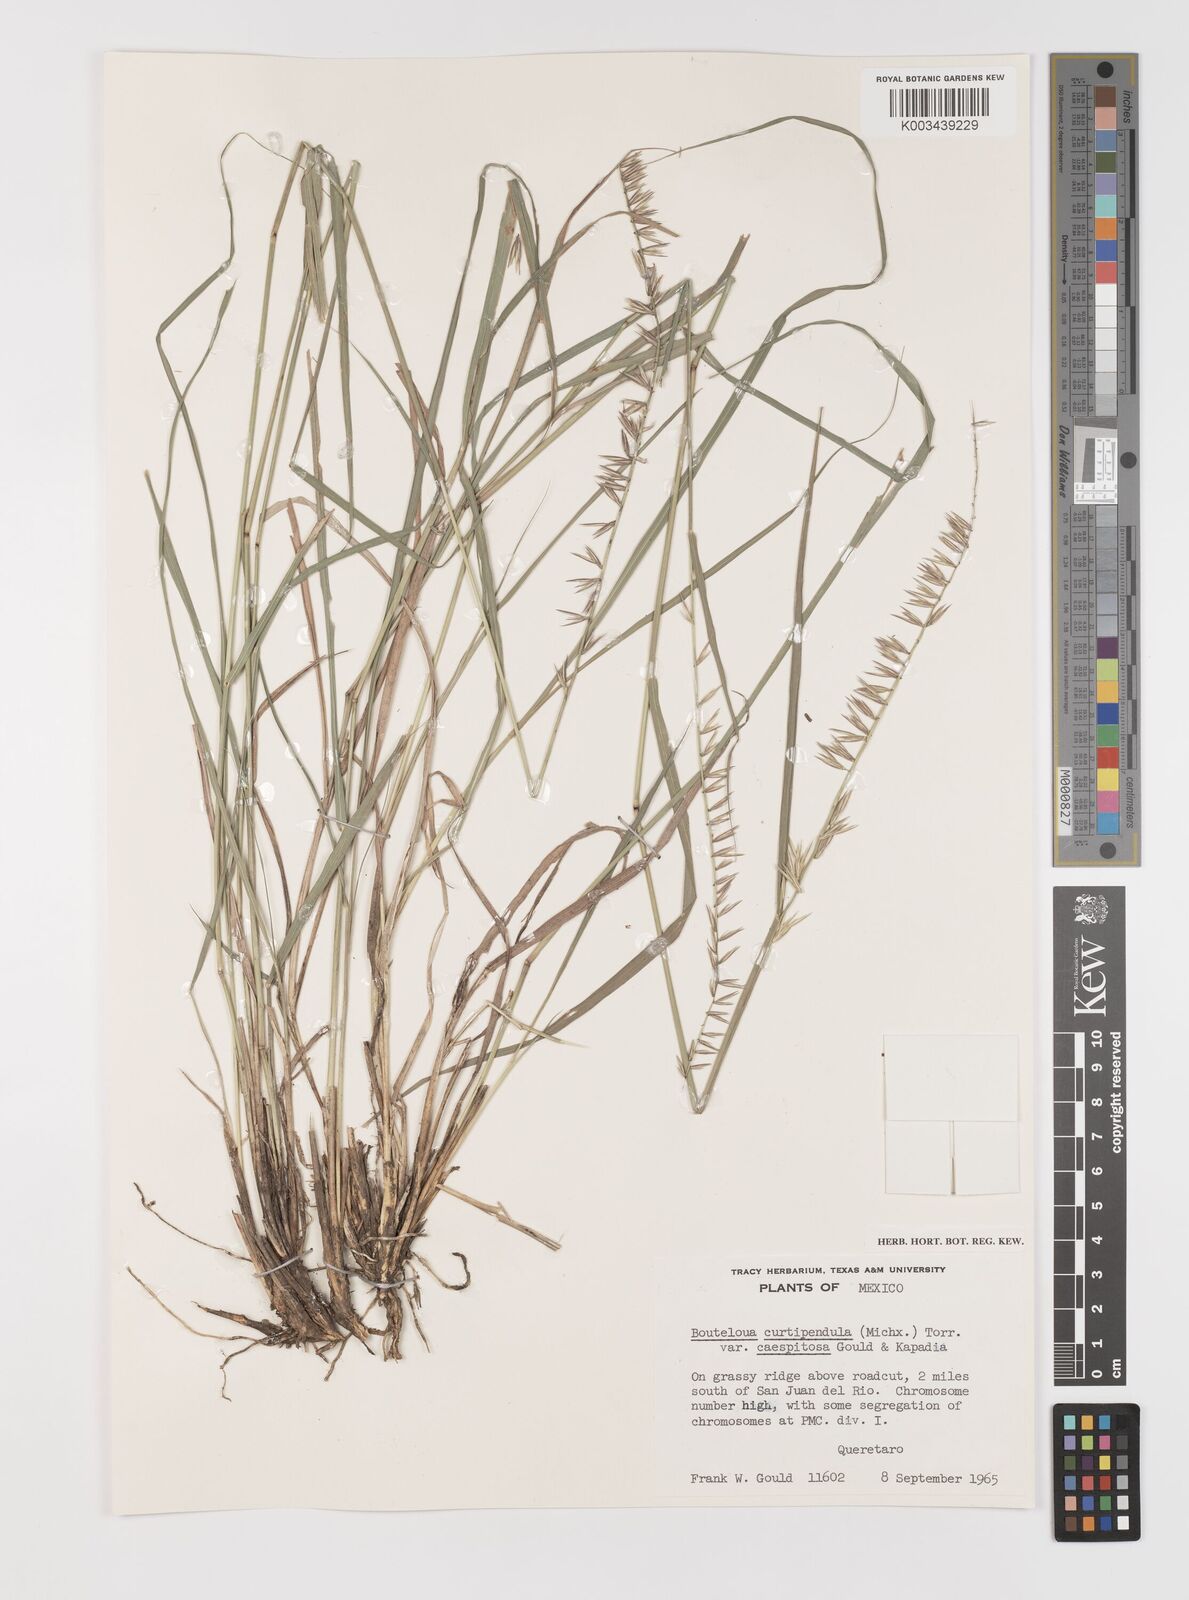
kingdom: Plantae
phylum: Tracheophyta
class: Liliopsida
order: Poales
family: Poaceae
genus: Bouteloua
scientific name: Bouteloua curtipendula
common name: Side-oats grama
